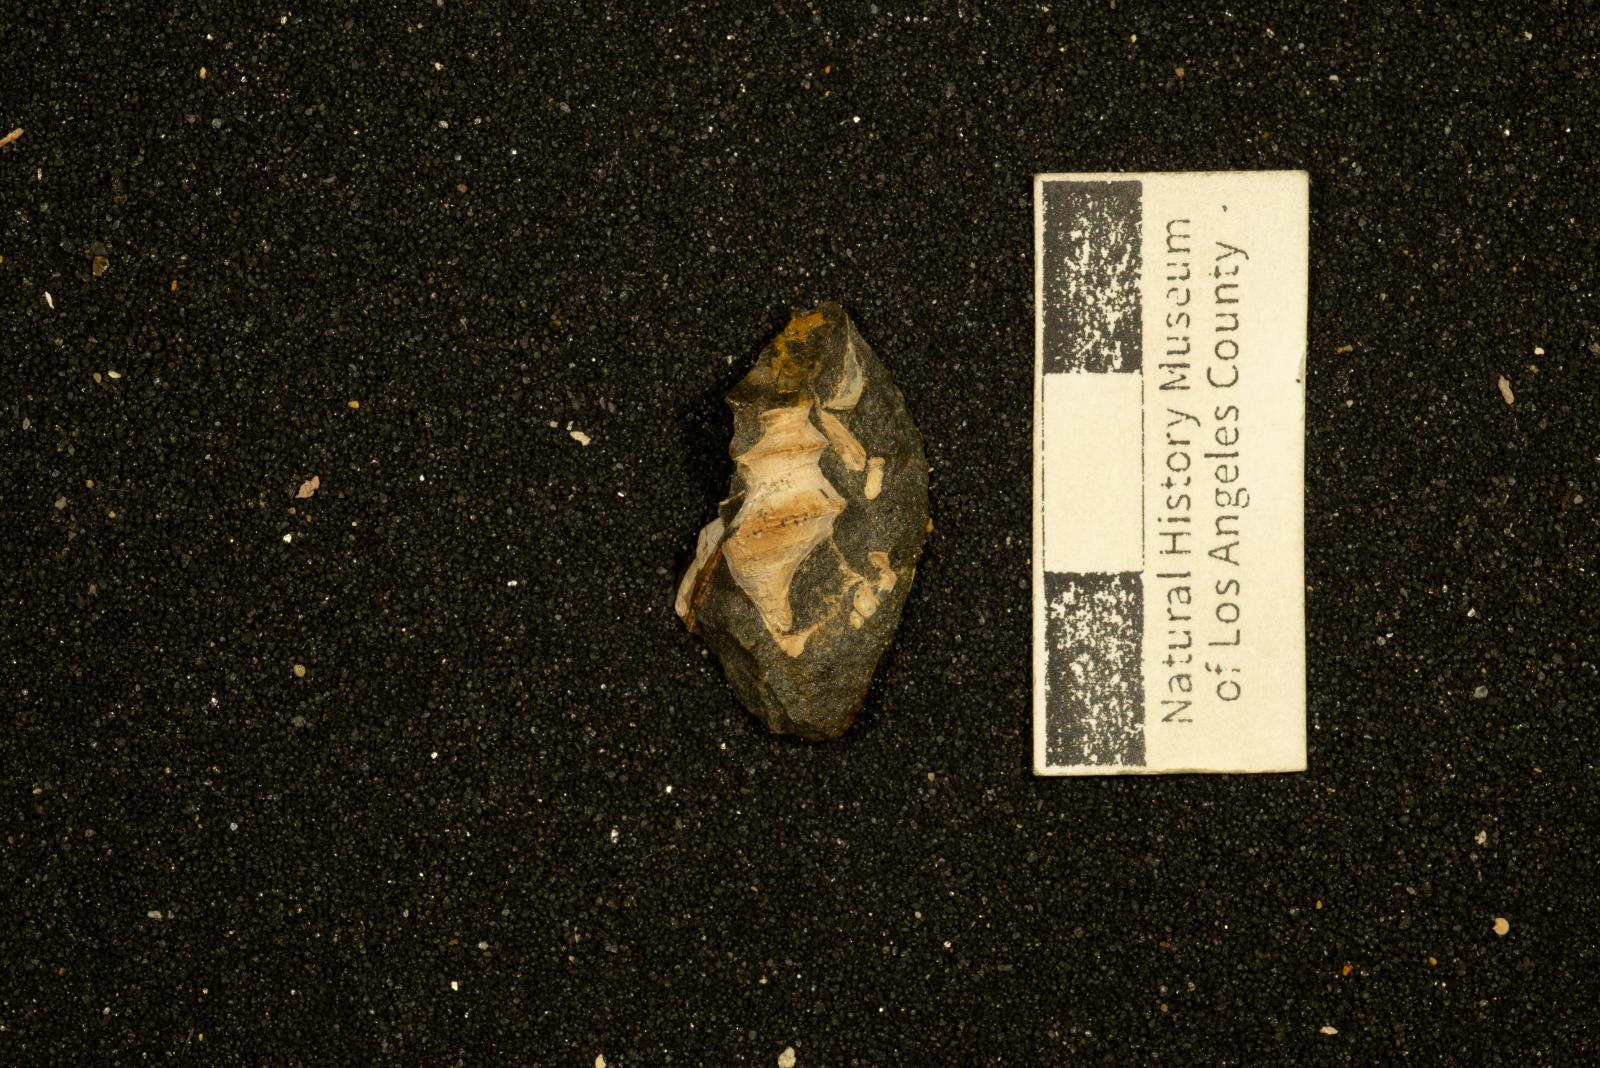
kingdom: Animalia
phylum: Mollusca
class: Gastropoda
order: Littorinimorpha
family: Capulidae
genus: Paxitropis
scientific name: Paxitropis dicriota
